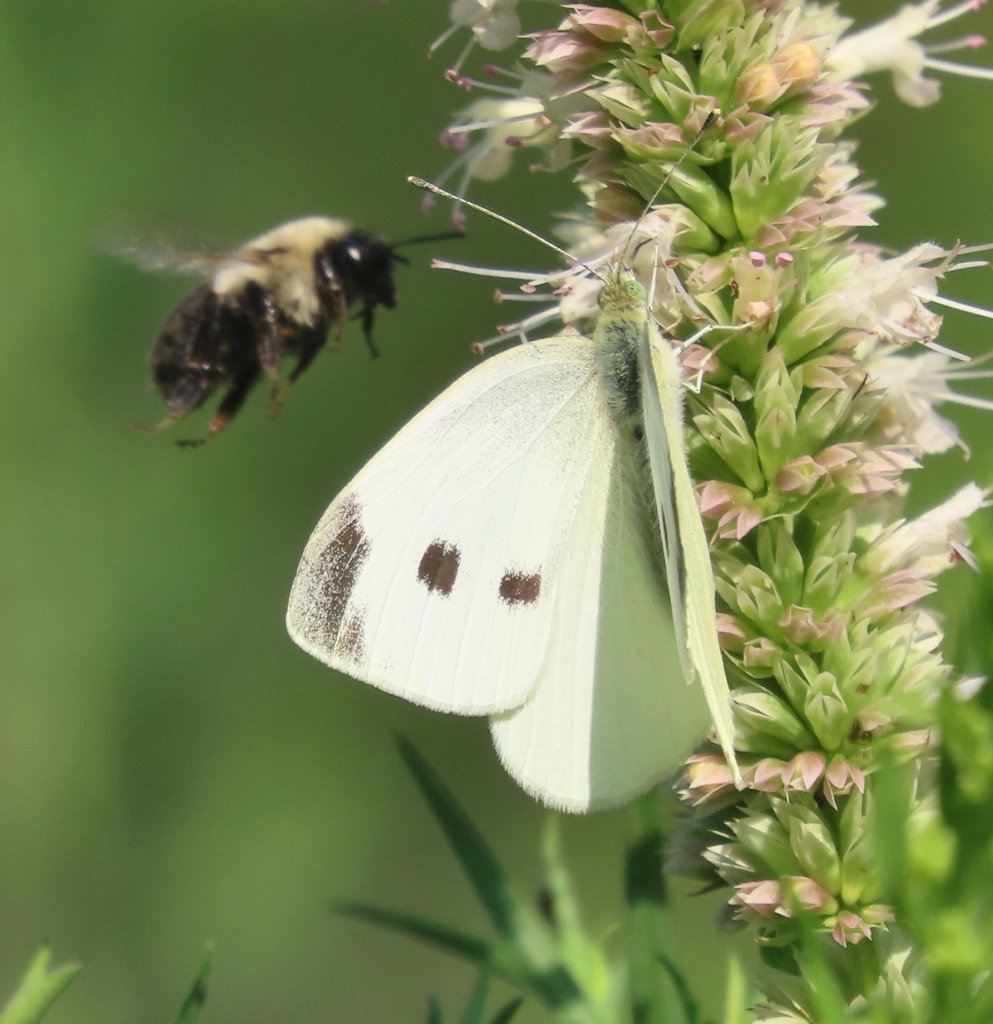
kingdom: Animalia
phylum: Arthropoda
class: Insecta
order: Lepidoptera
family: Pieridae
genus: Pieris
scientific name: Pieris rapae
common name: Cabbage White
